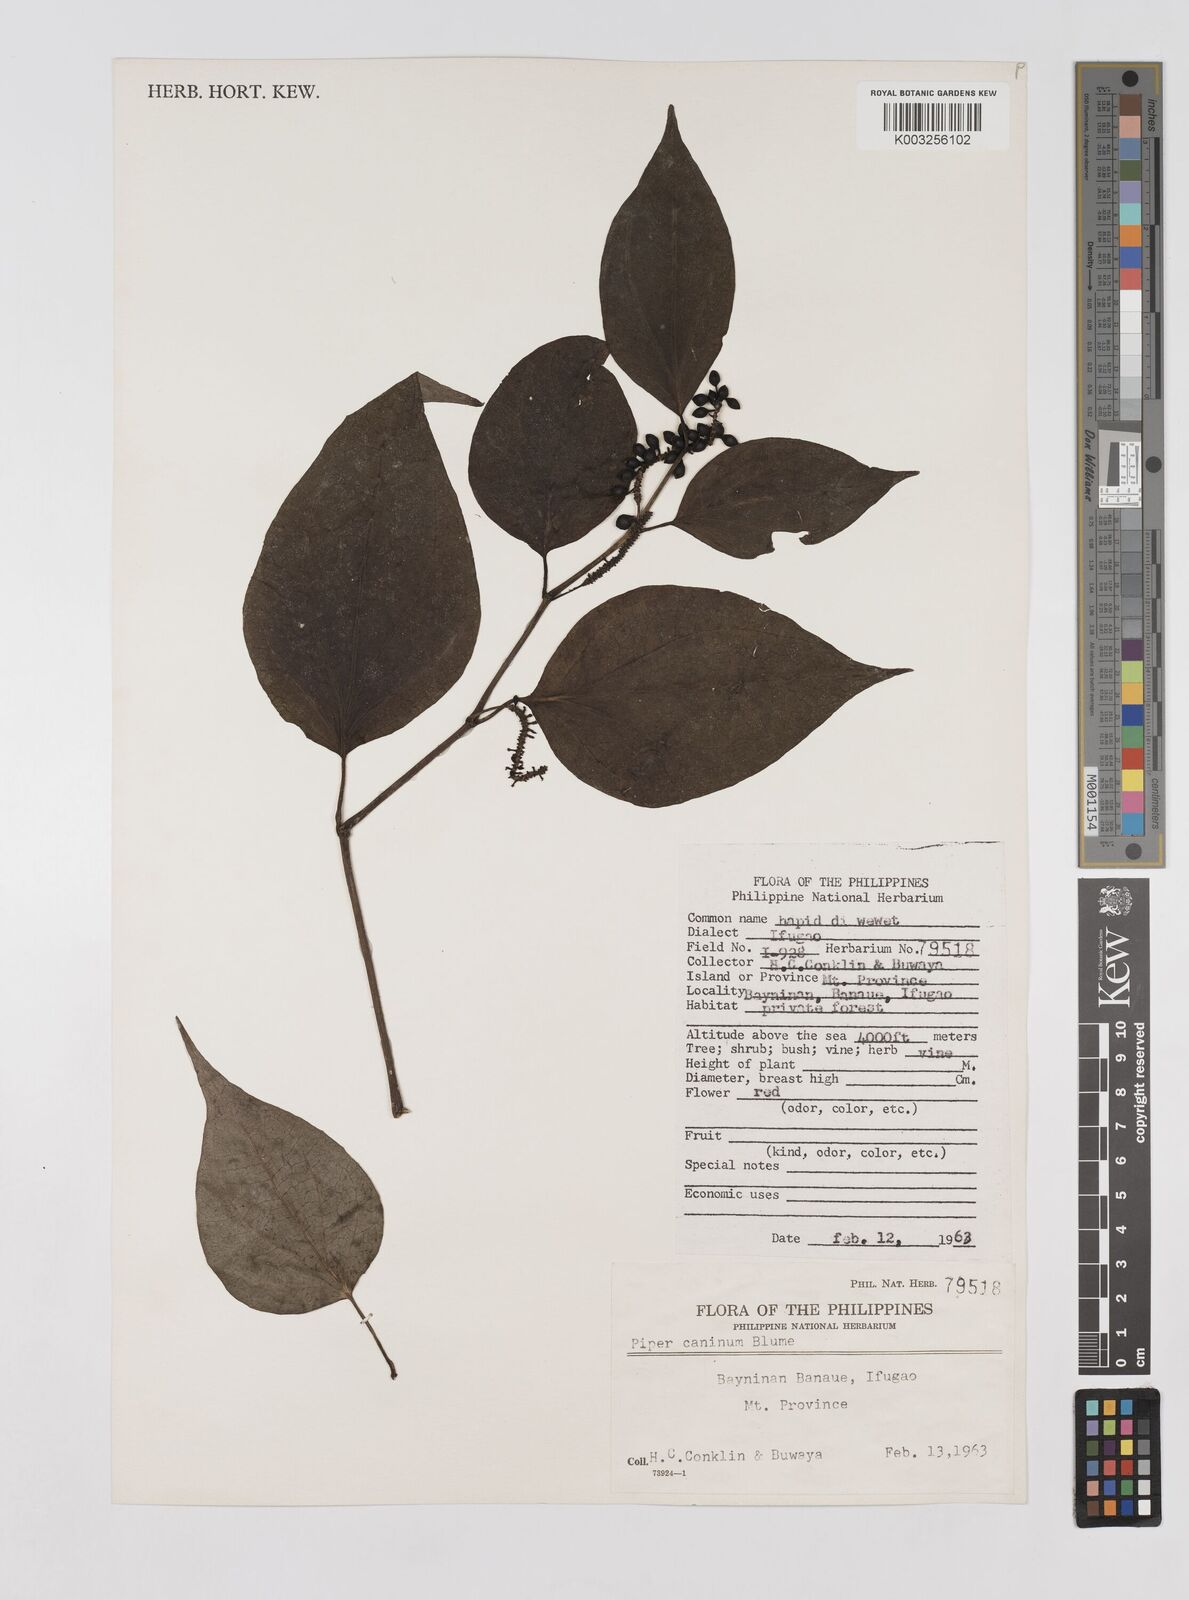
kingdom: Plantae
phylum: Tracheophyta
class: Magnoliopsida
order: Piperales
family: Piperaceae
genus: Piper
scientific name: Piper lanatum
